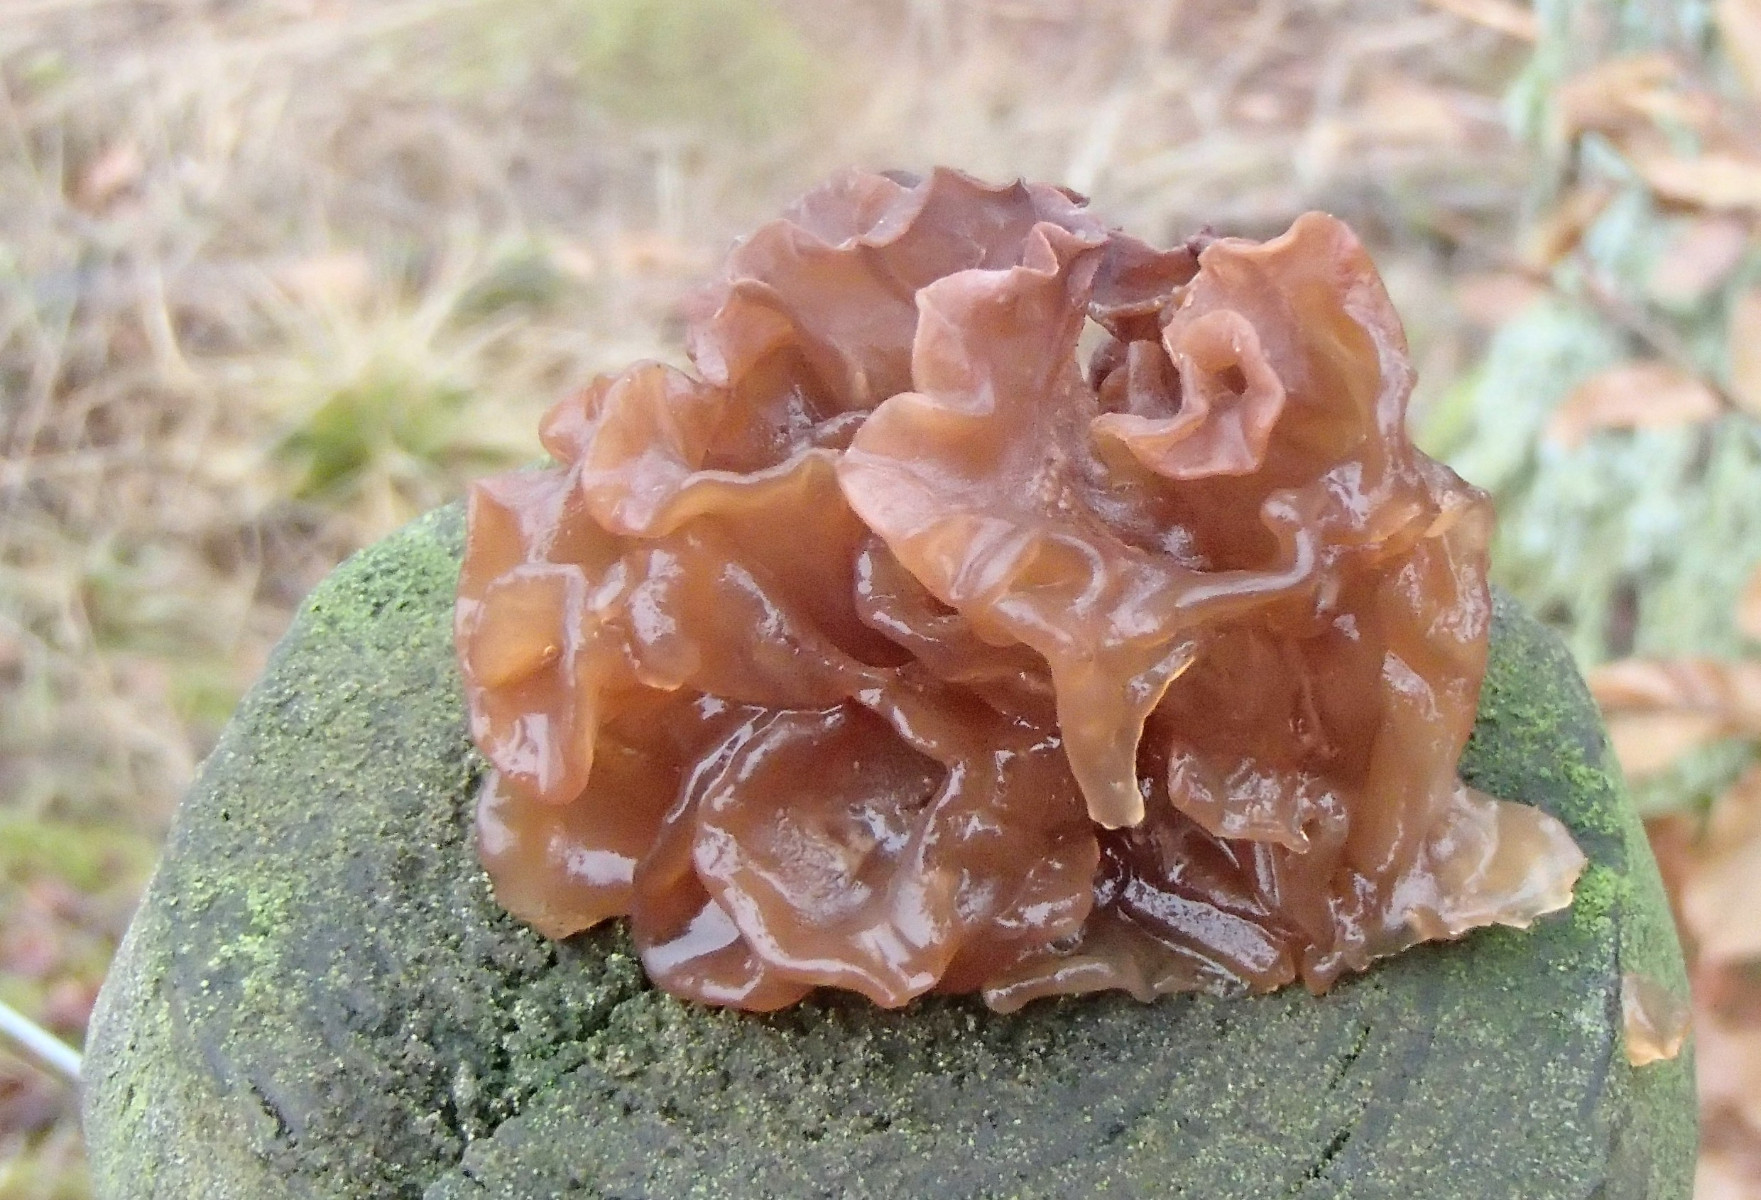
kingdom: Fungi
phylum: Basidiomycota
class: Tremellomycetes
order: Tremellales
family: Tremellaceae
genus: Phaeotremella
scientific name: Phaeotremella frondosa
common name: kæmpe-bævresvamp
